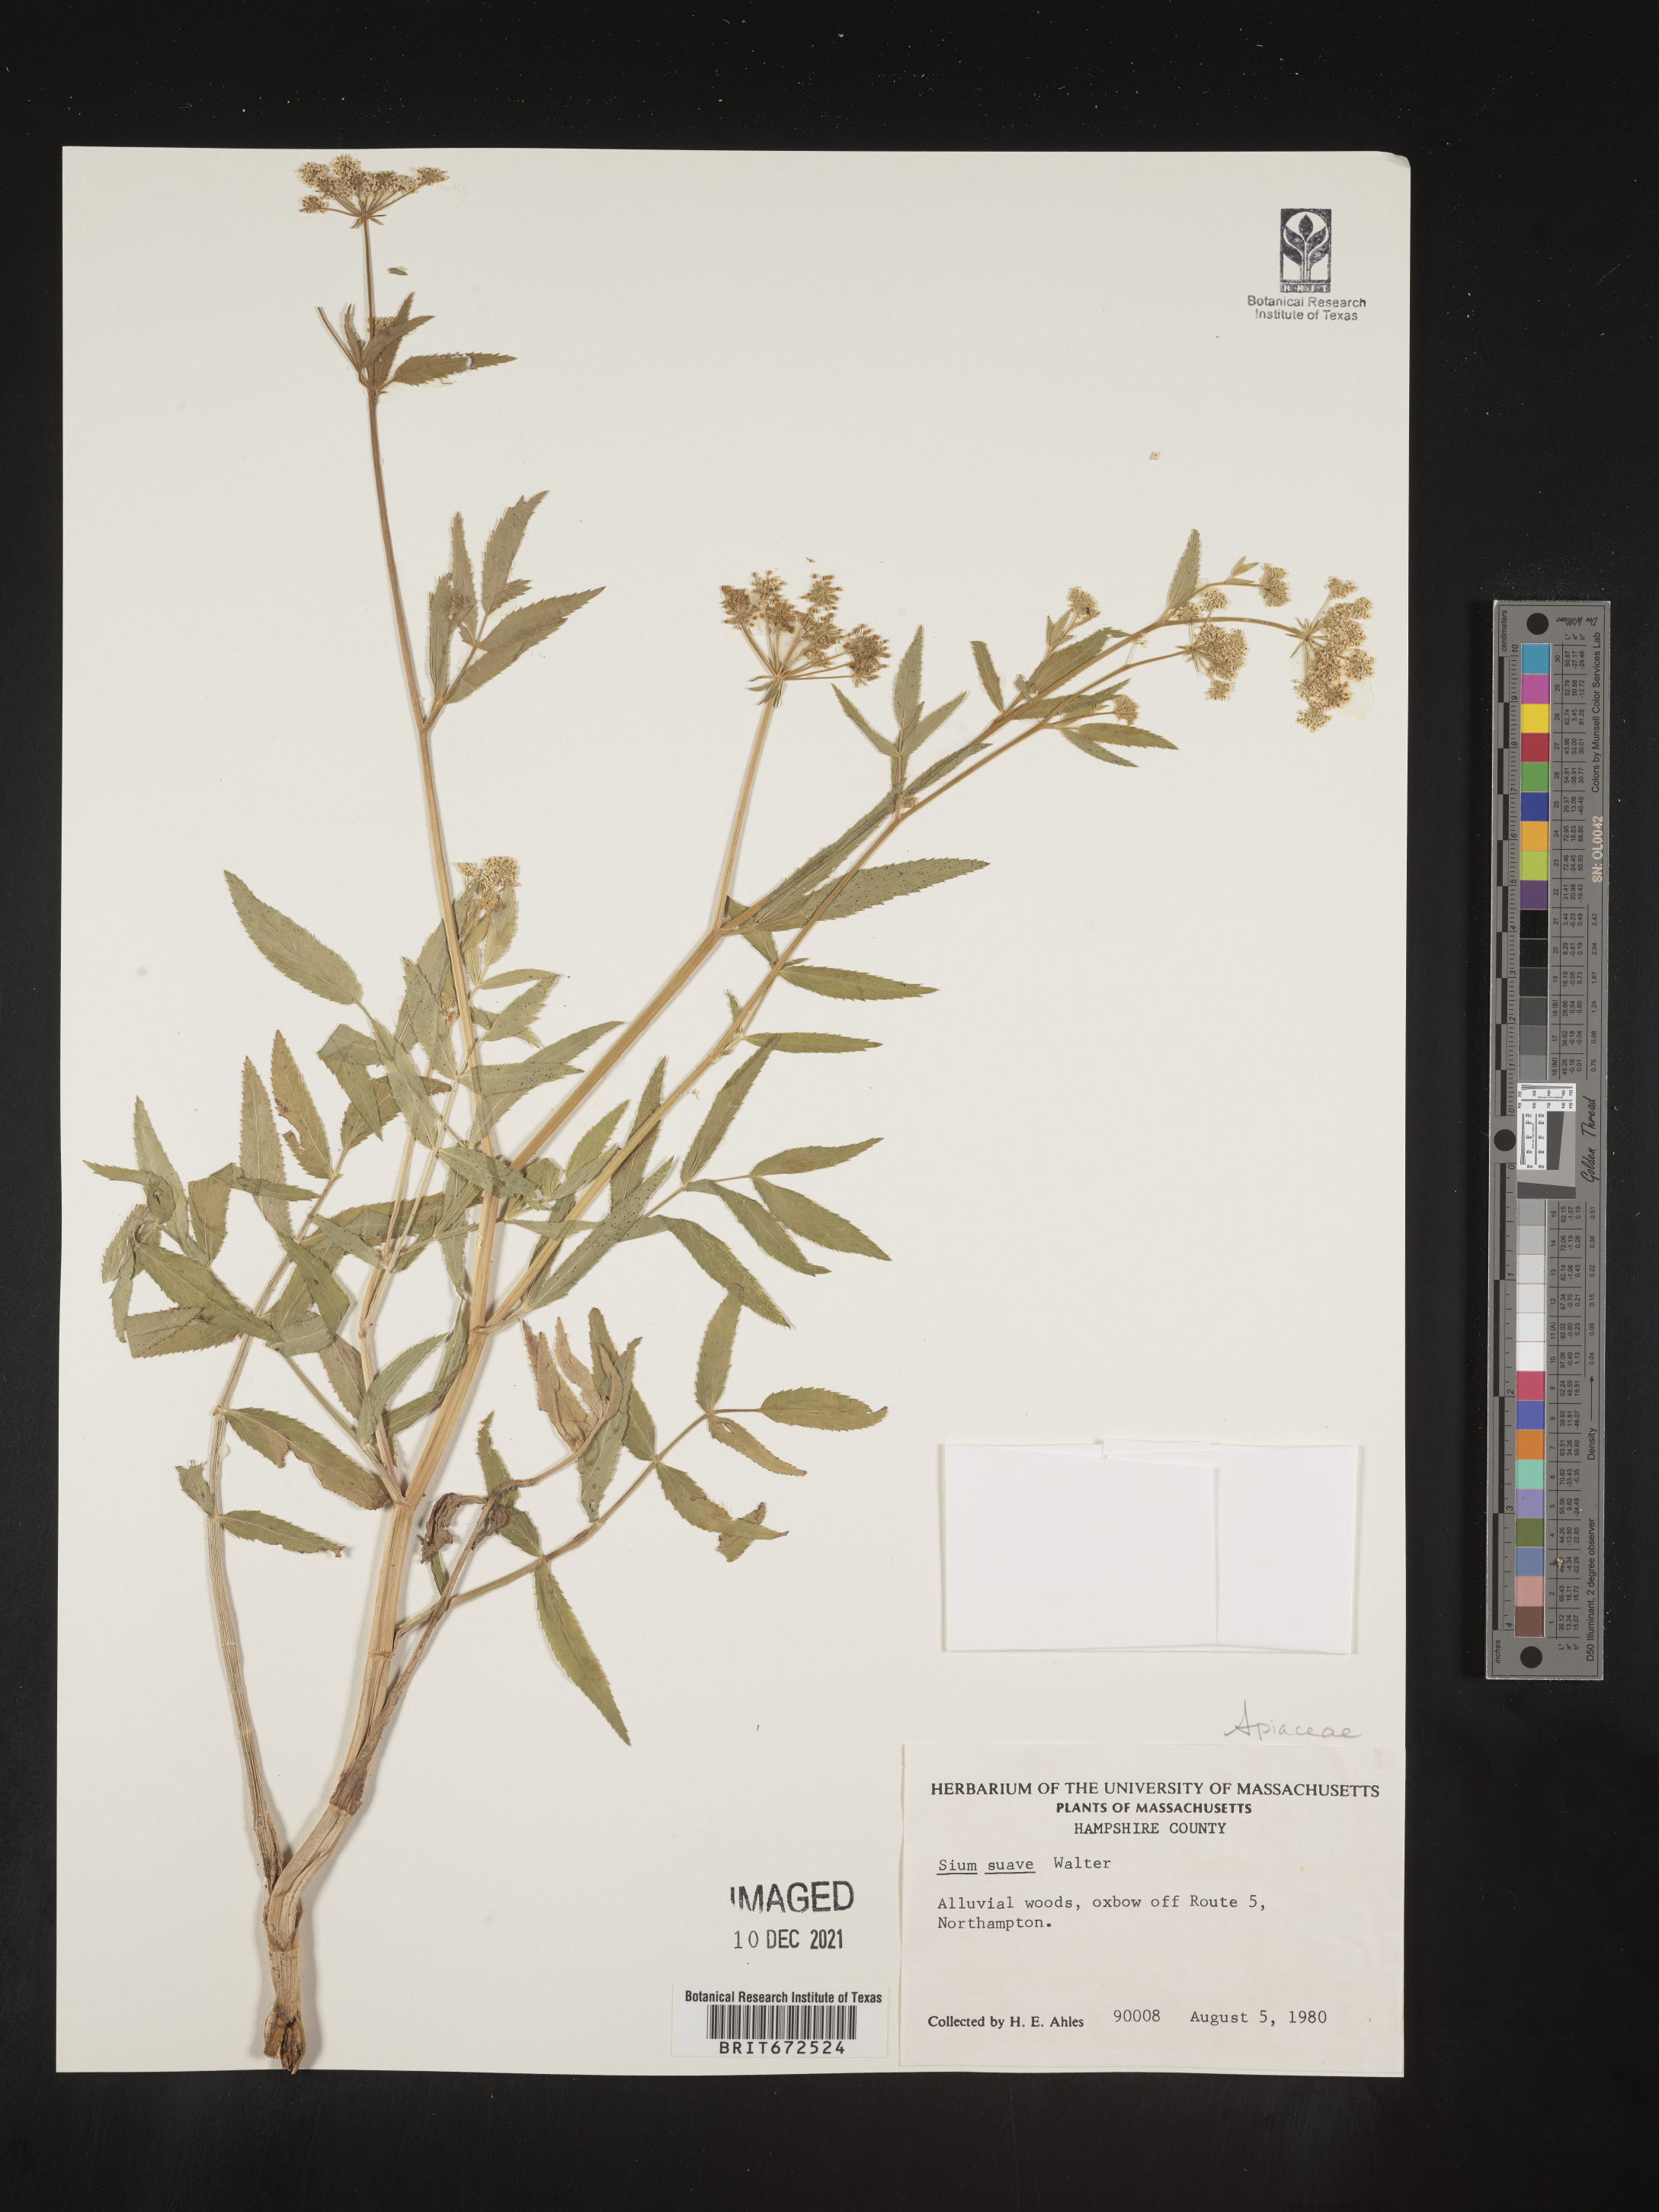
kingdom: Plantae
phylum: Tracheophyta
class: Magnoliopsida
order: Apiales
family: Apiaceae
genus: Sium
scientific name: Sium suave
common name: Hemlock water-parsnip
